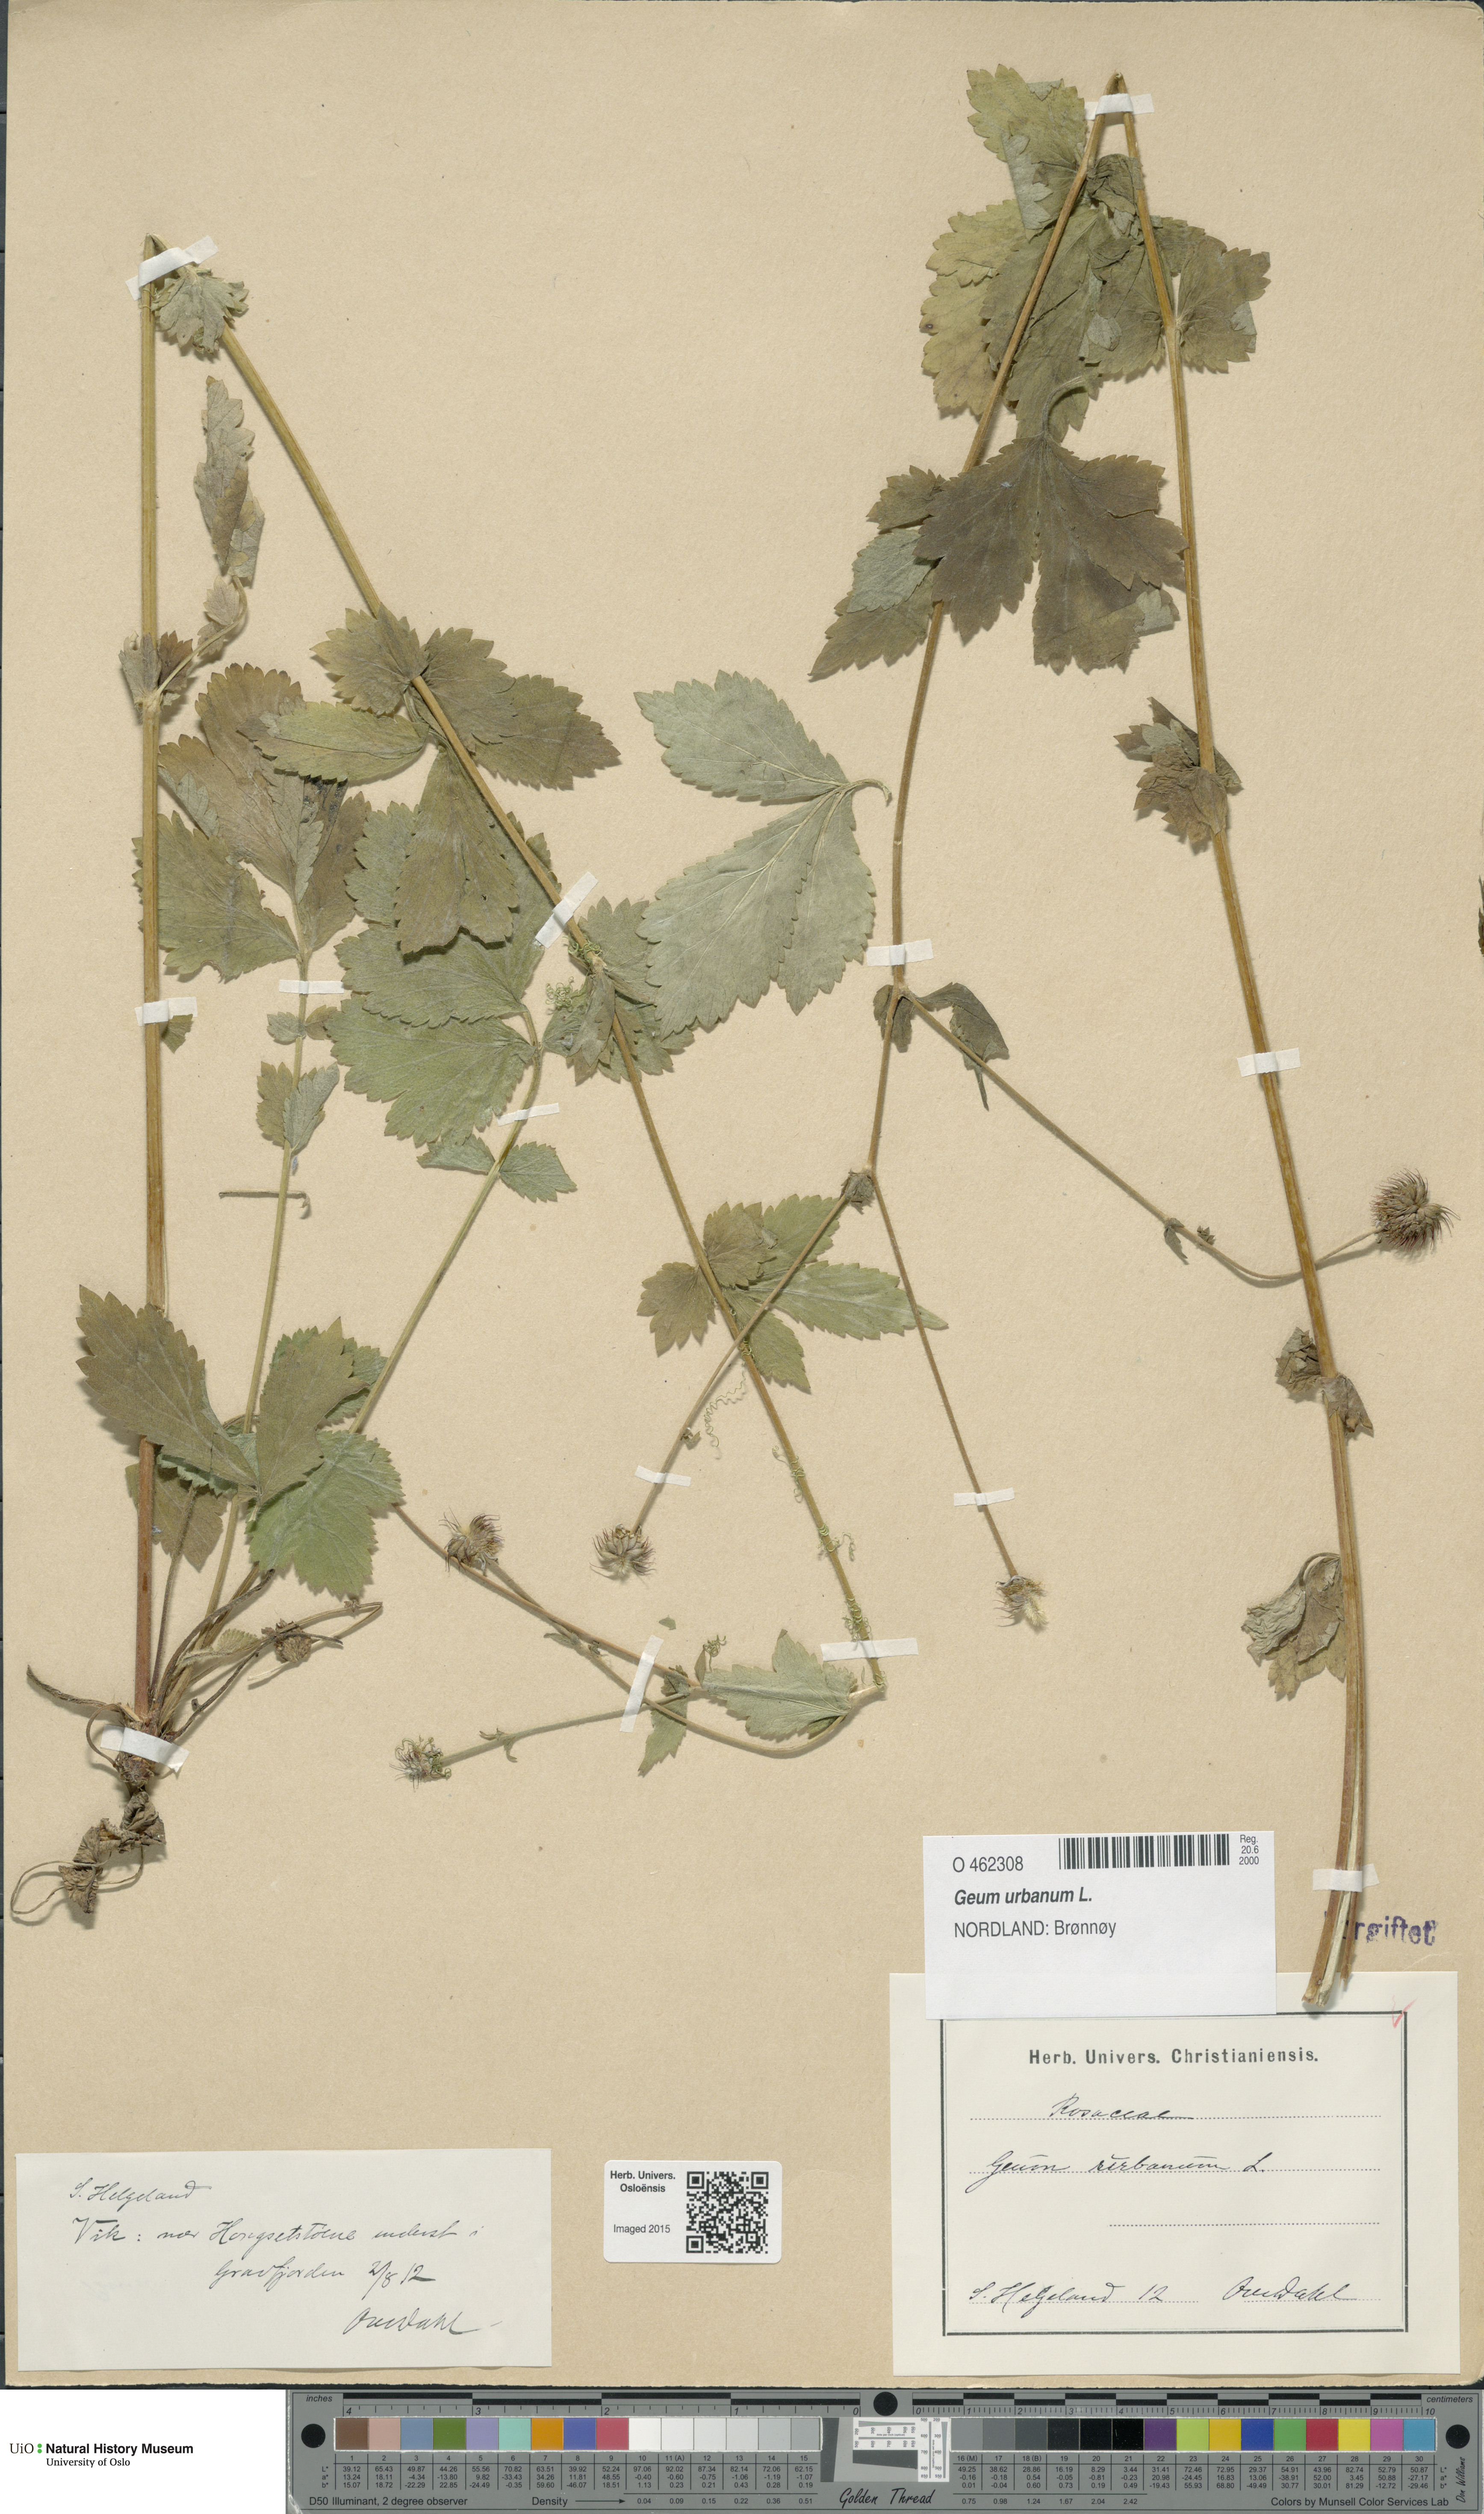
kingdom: Plantae
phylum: Tracheophyta
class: Magnoliopsida
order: Rosales
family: Rosaceae
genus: Geum
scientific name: Geum urbanum
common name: Wood avens
